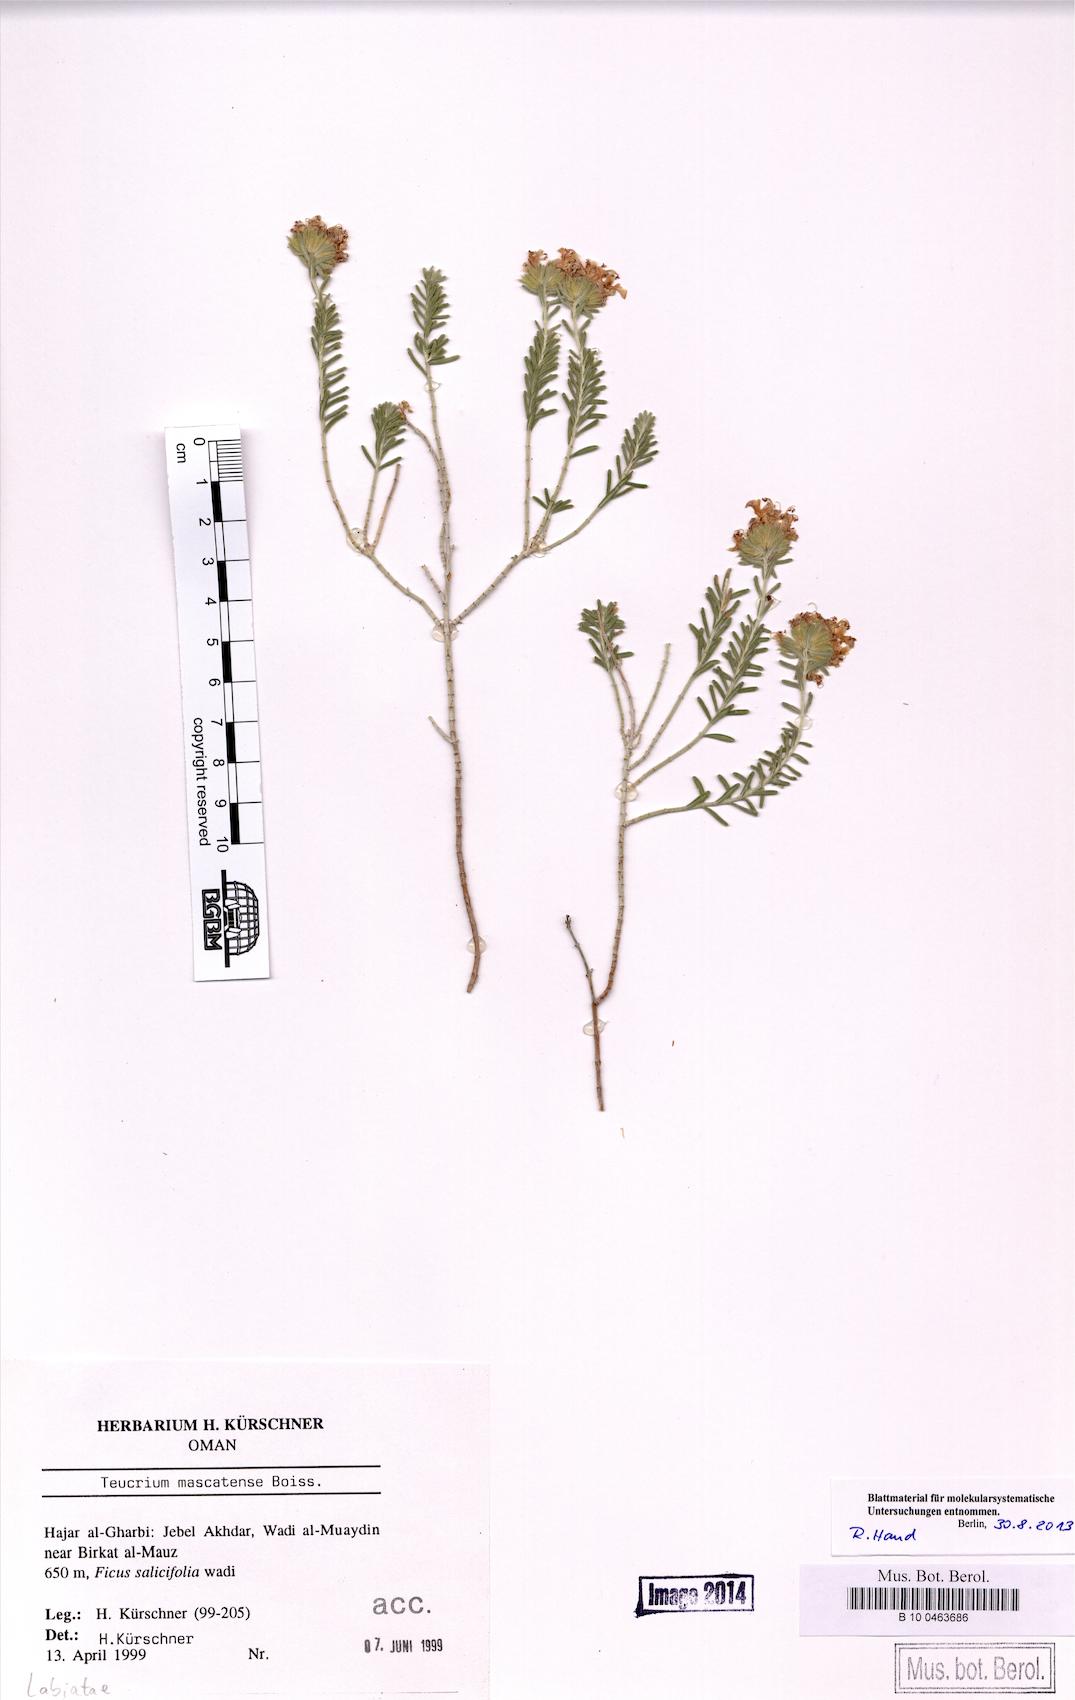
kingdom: Plantae
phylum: Tracheophyta
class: Magnoliopsida
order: Lamiales
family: Lamiaceae
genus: Teucrium
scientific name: Teucrium mascatense
